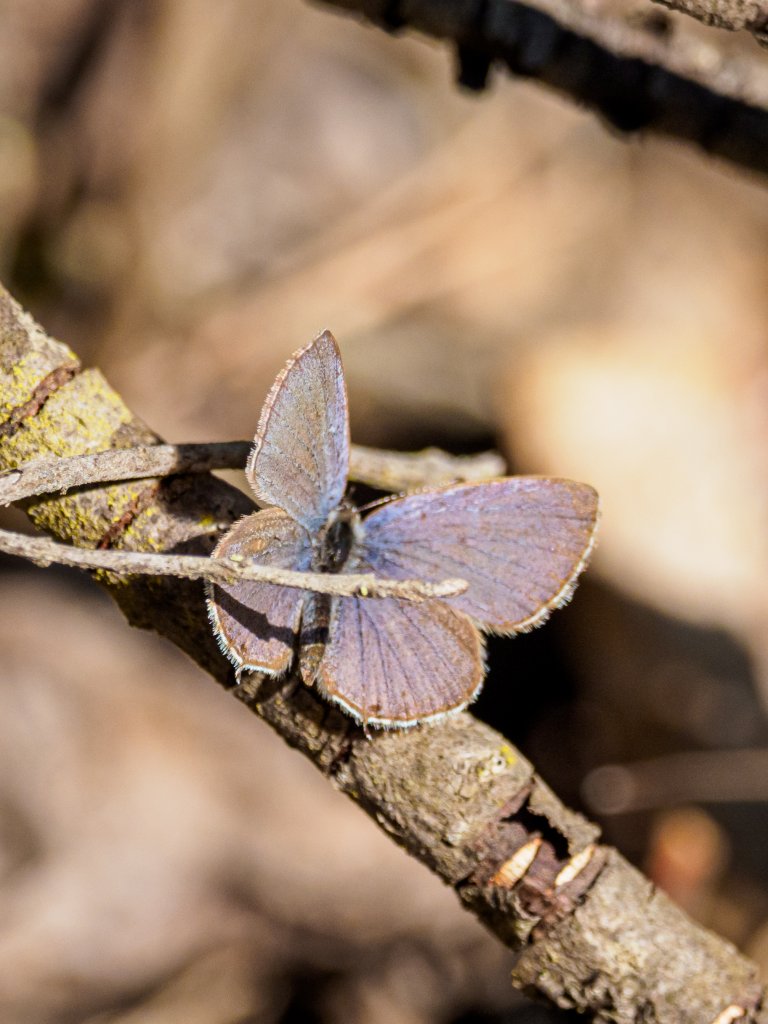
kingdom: Animalia
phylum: Arthropoda
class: Insecta
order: Lepidoptera
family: Lycaenidae
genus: Elkalyce
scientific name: Elkalyce amyntula
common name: Western Tailed-Blue
